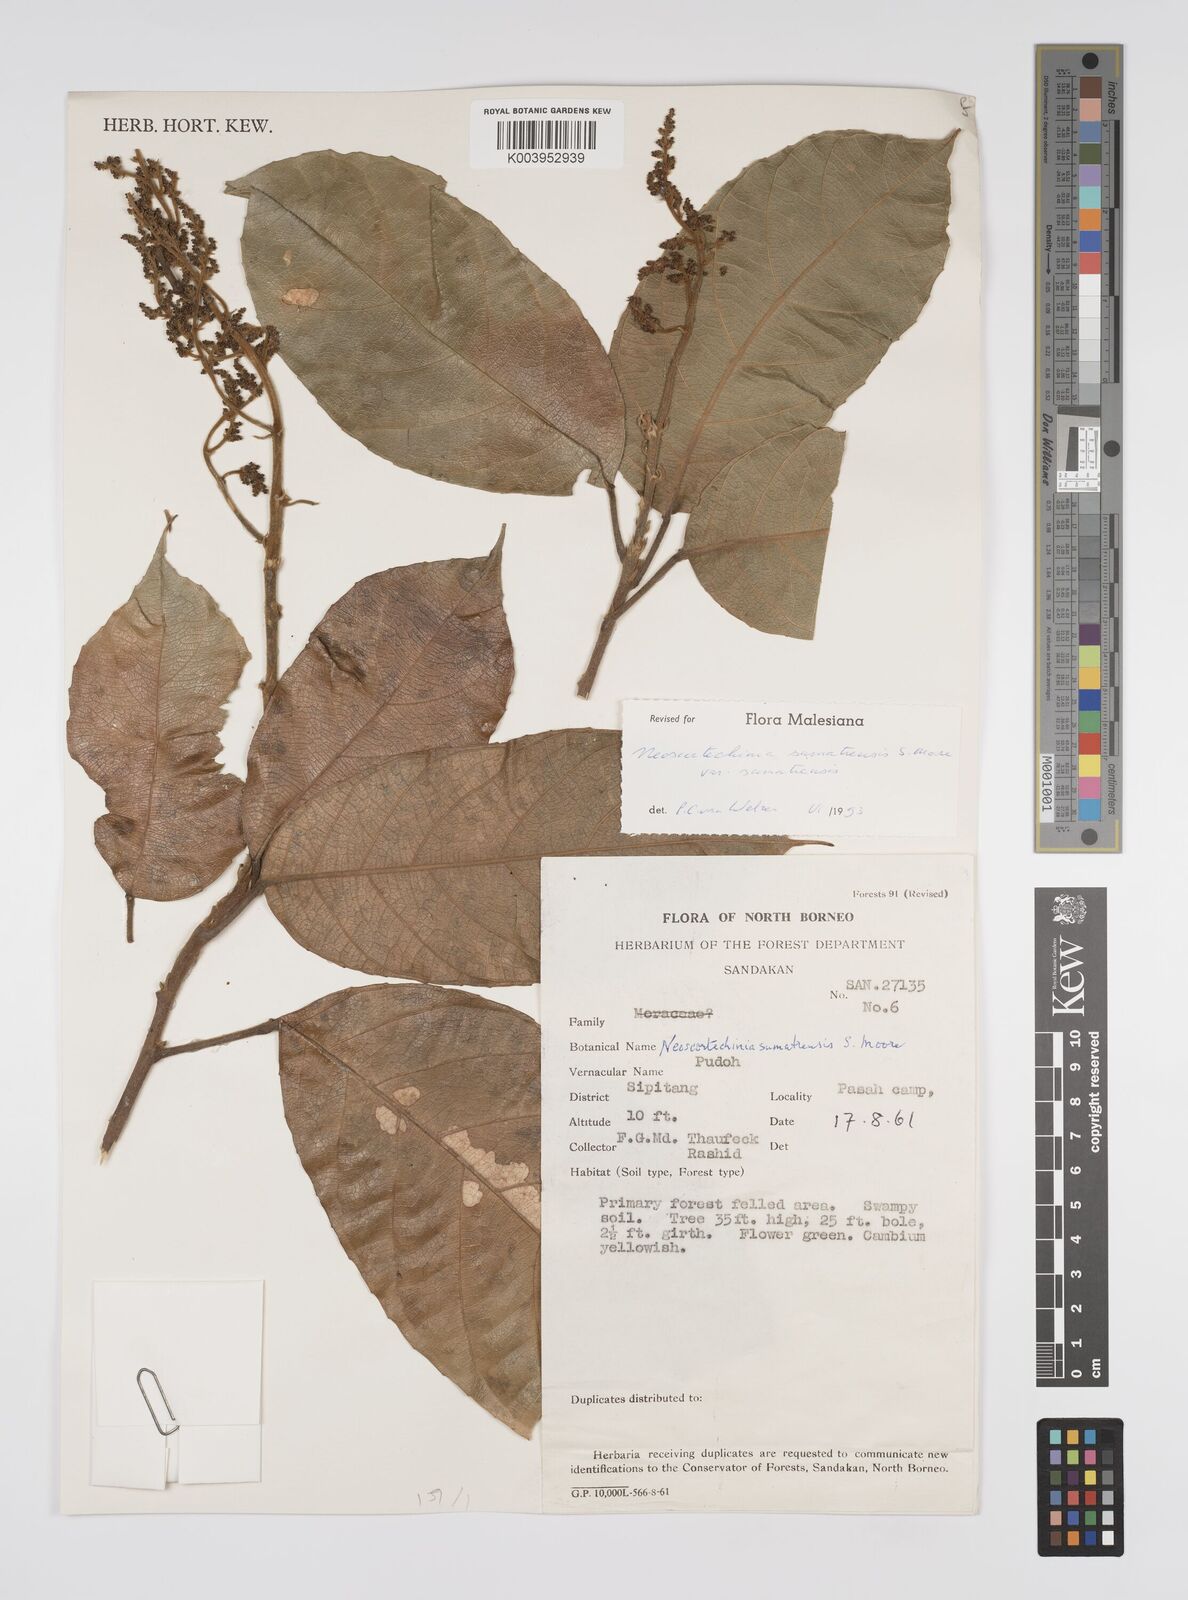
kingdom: Plantae
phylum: Tracheophyta
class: Magnoliopsida
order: Malpighiales
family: Euphorbiaceae
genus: Neoscortechinia
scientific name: Neoscortechinia sumatrensis
